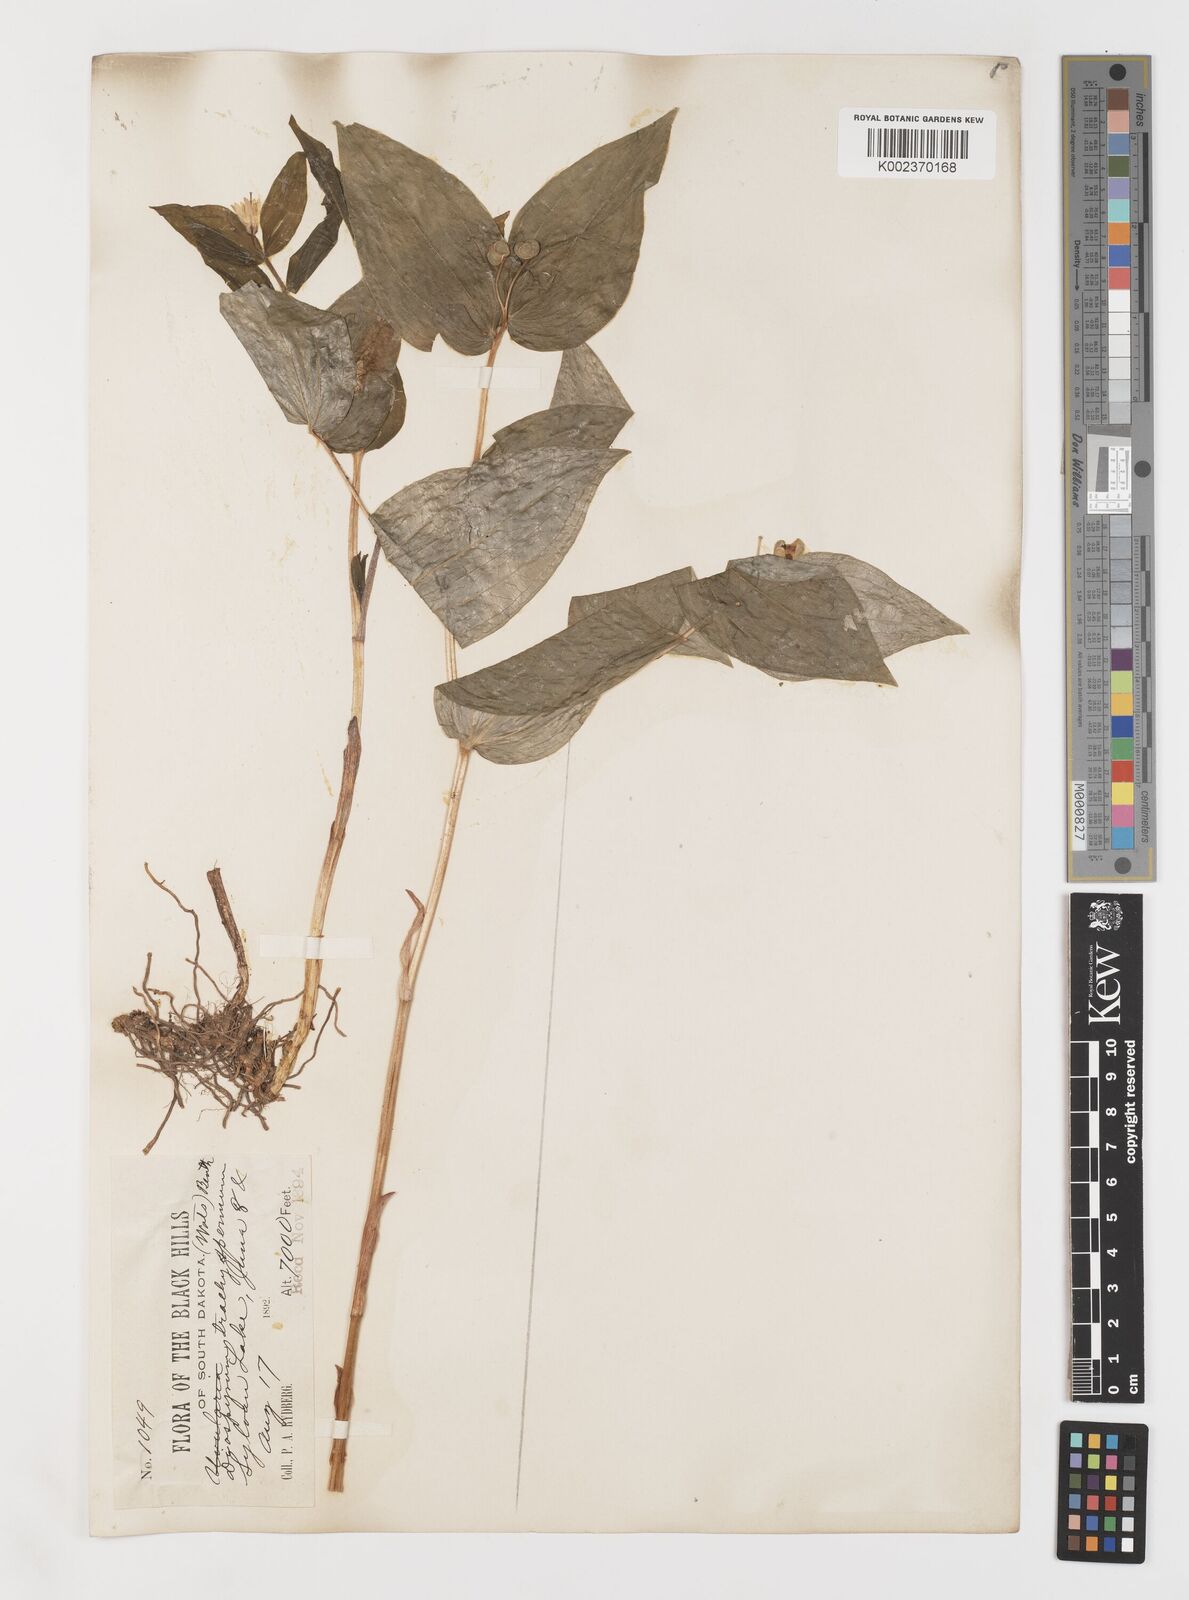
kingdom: Plantae
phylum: Tracheophyta
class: Liliopsida
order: Liliales
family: Liliaceae
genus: Prosartes
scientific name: Prosartes trachycarpa
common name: Rough-fruit fairy-bells
